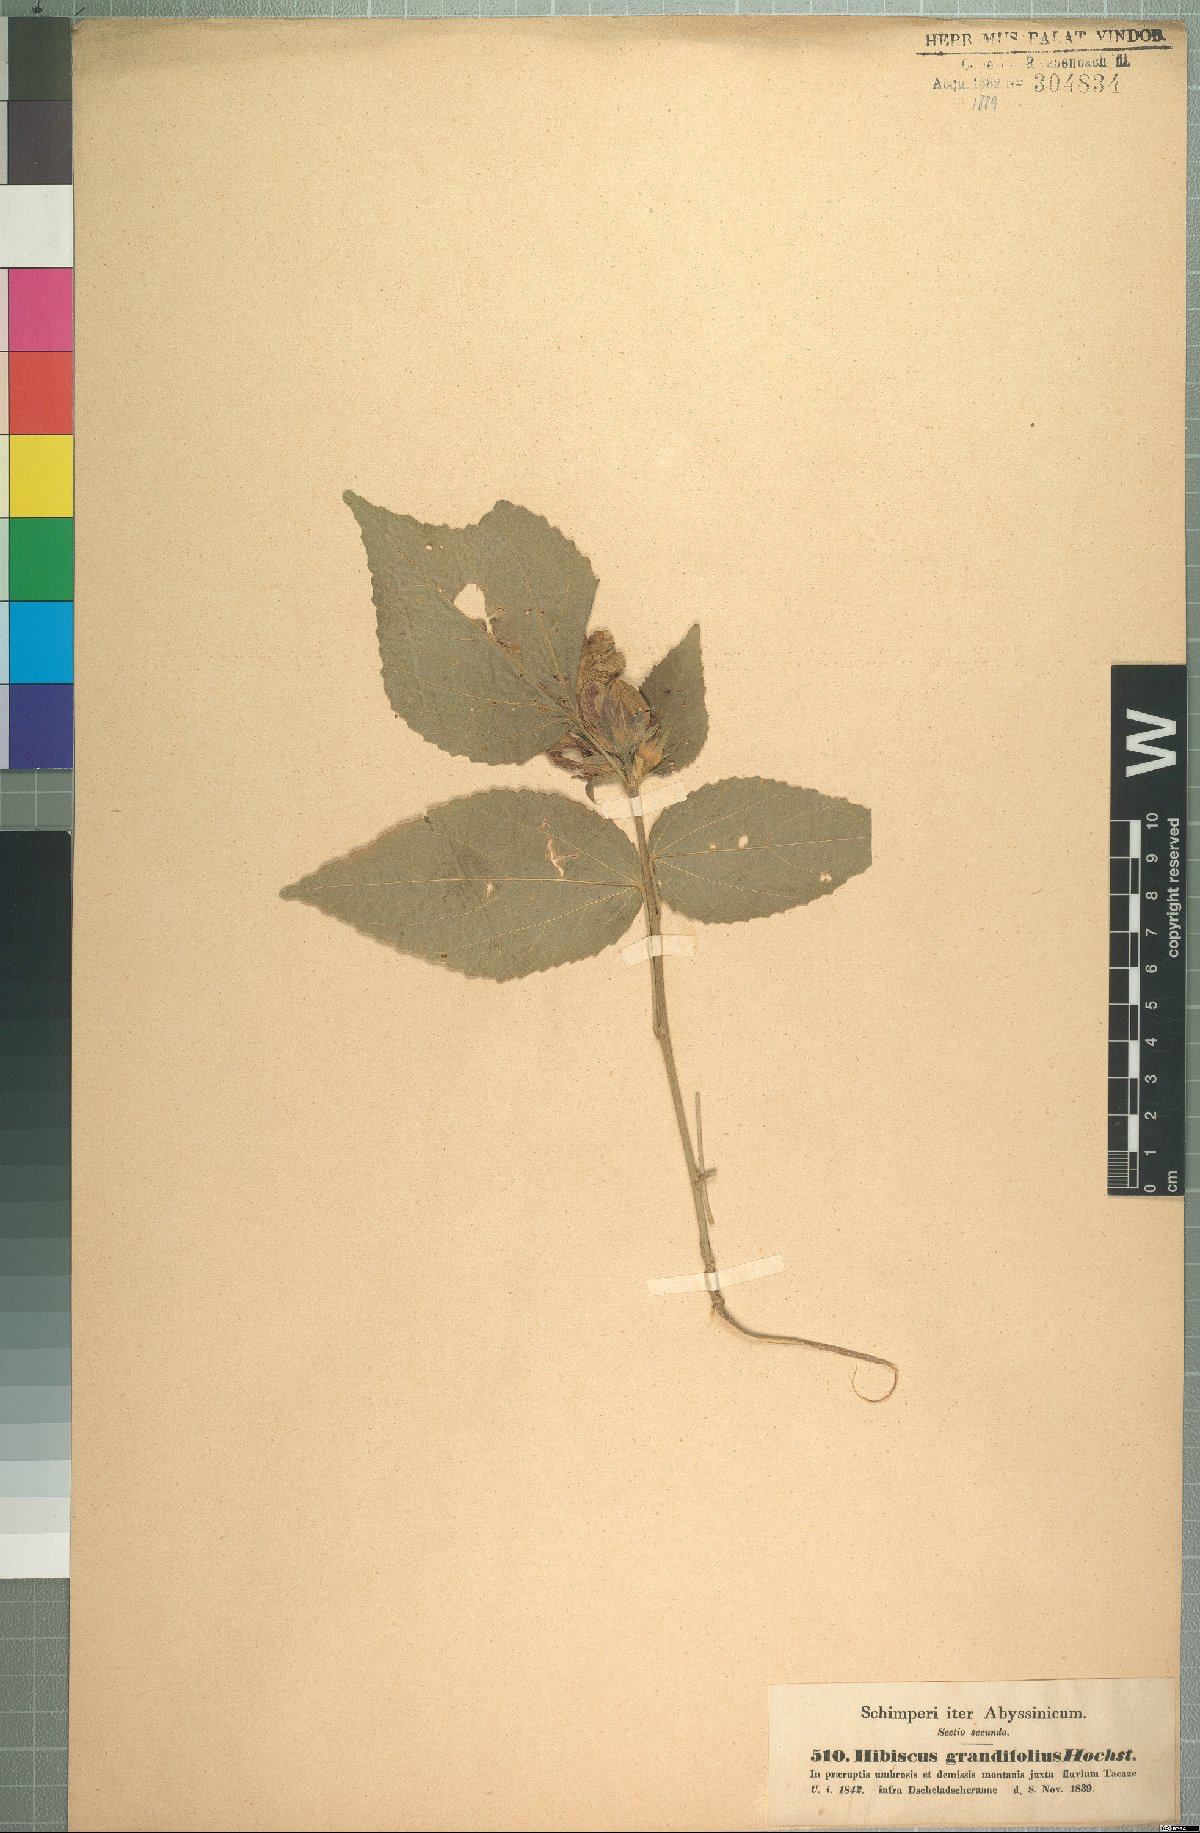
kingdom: Plantae
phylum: Tracheophyta
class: Magnoliopsida
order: Malvales
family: Malvaceae
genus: Hibiscus
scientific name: Hibiscus calyphyllus
